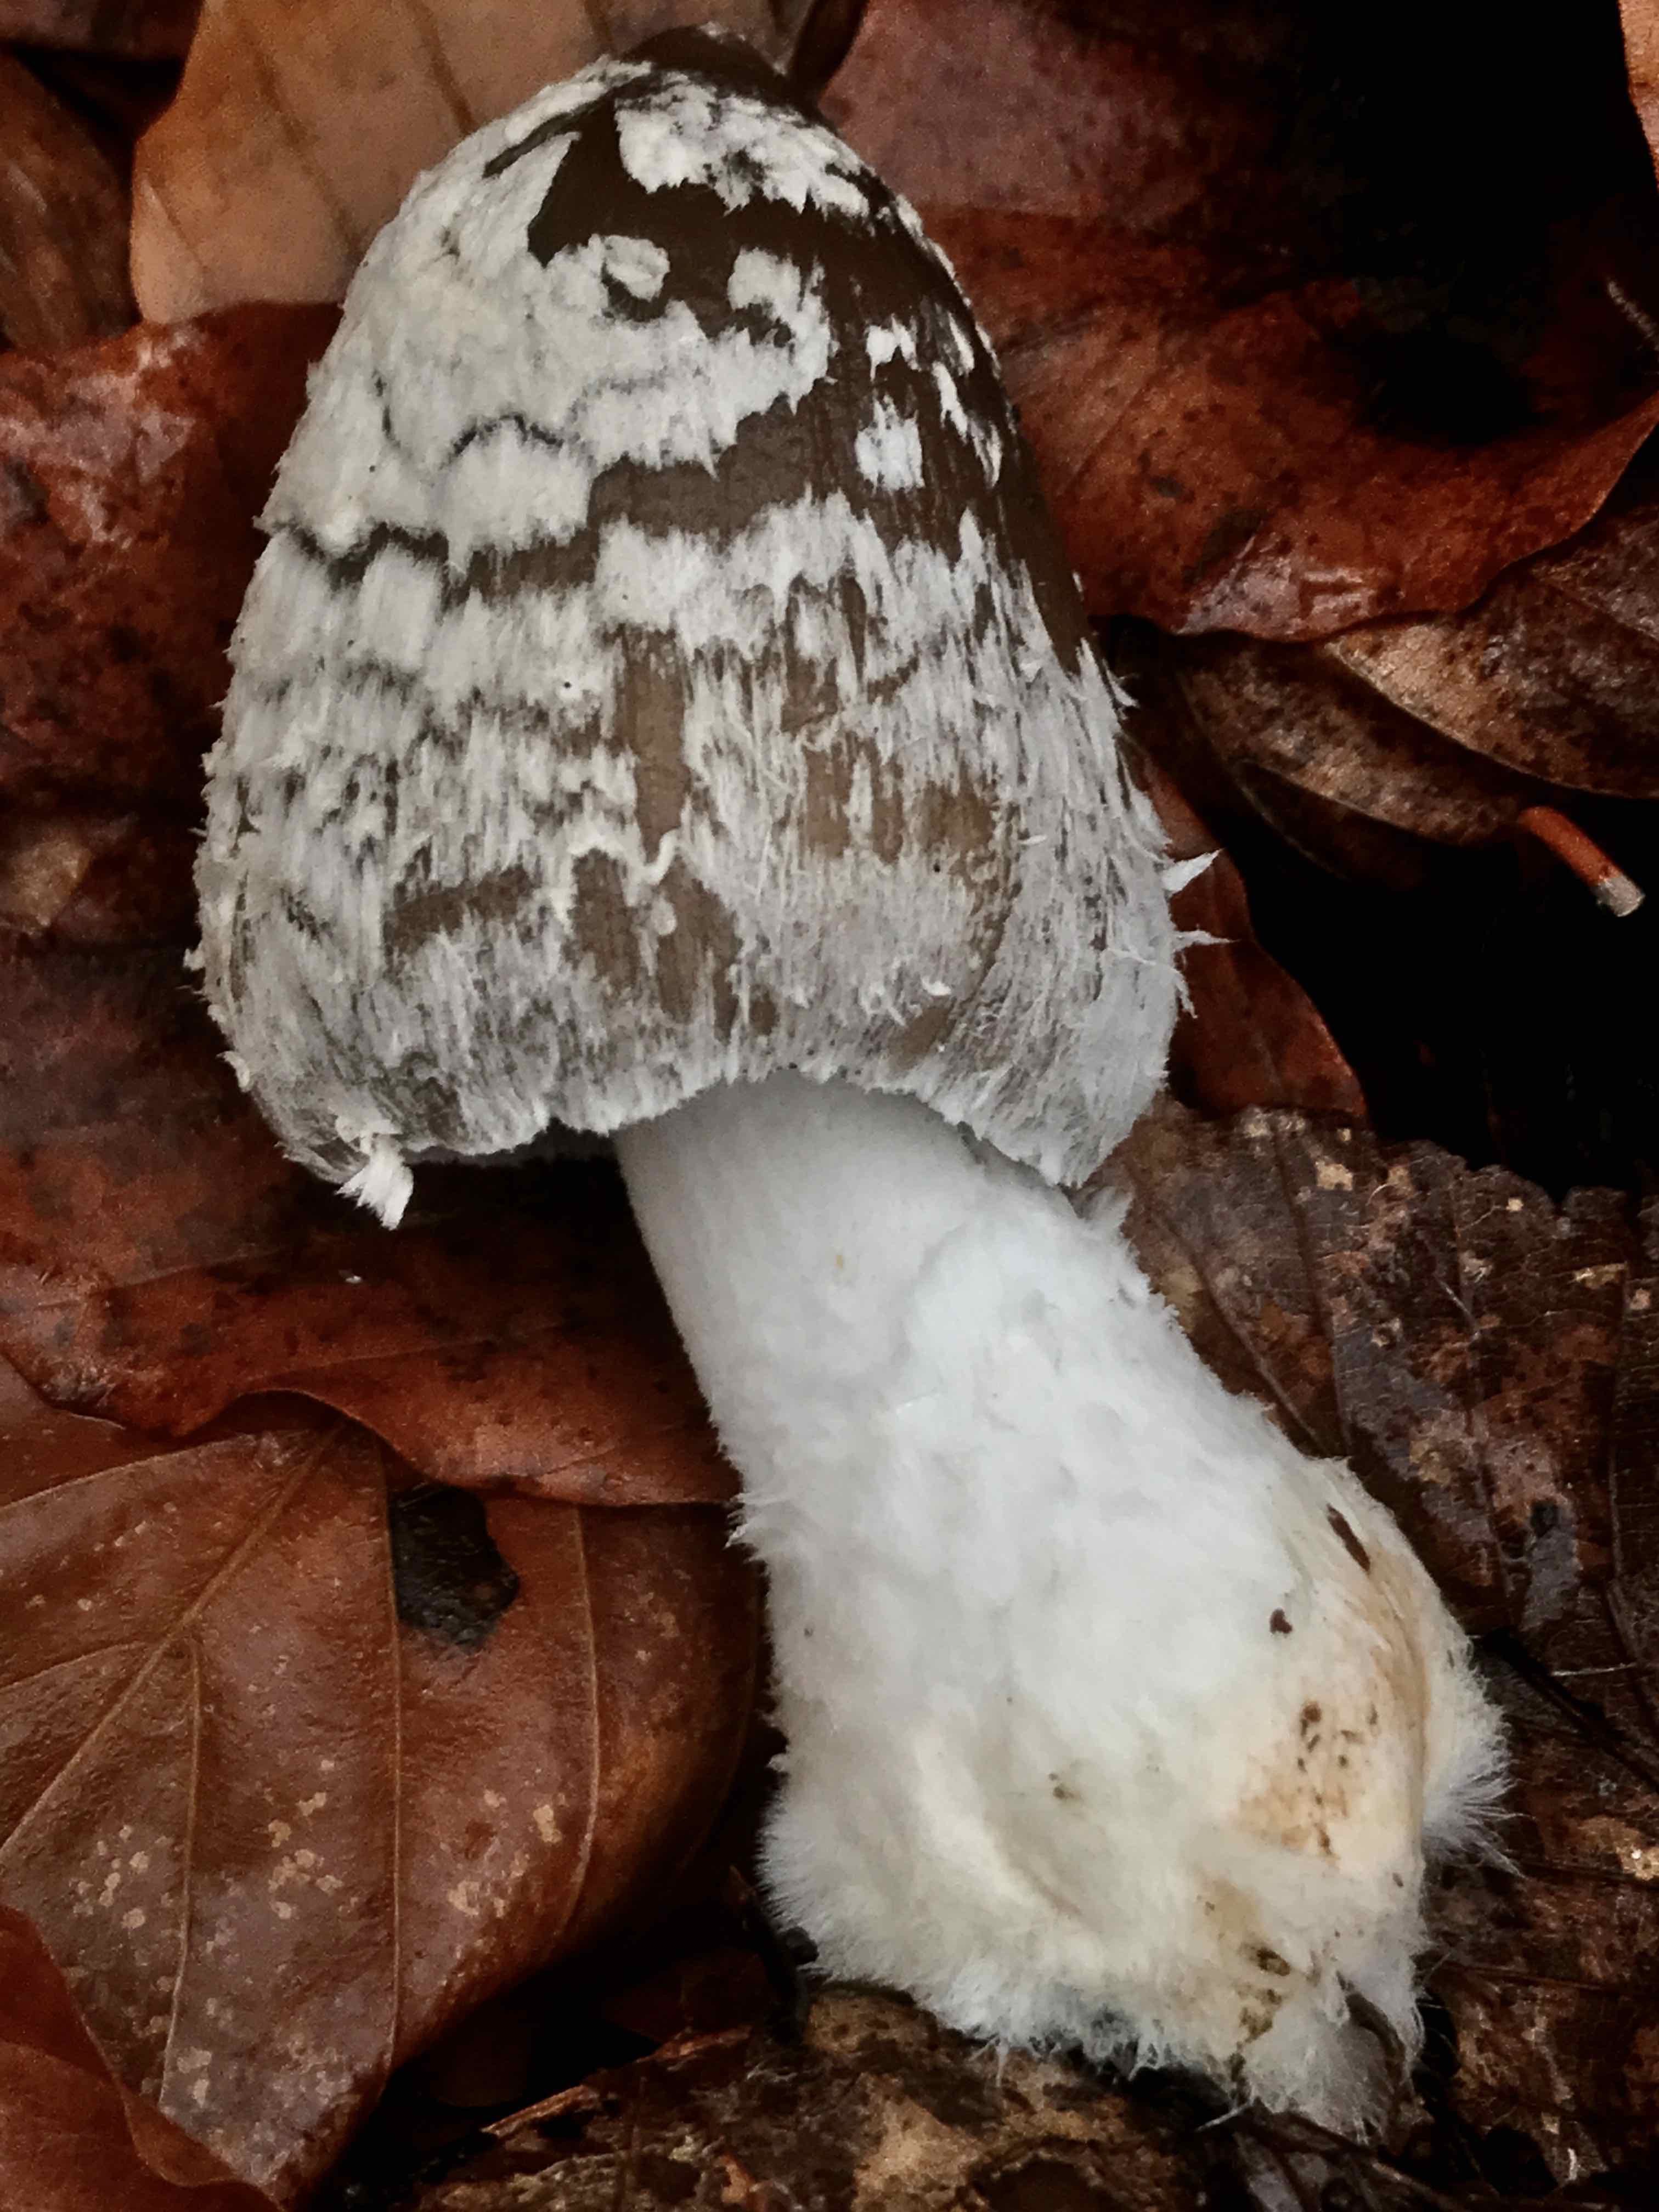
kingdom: Fungi
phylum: Basidiomycota
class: Agaricomycetes
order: Agaricales
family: Psathyrellaceae
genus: Coprinopsis
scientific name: Coprinopsis picacea
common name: skade-blækhat
